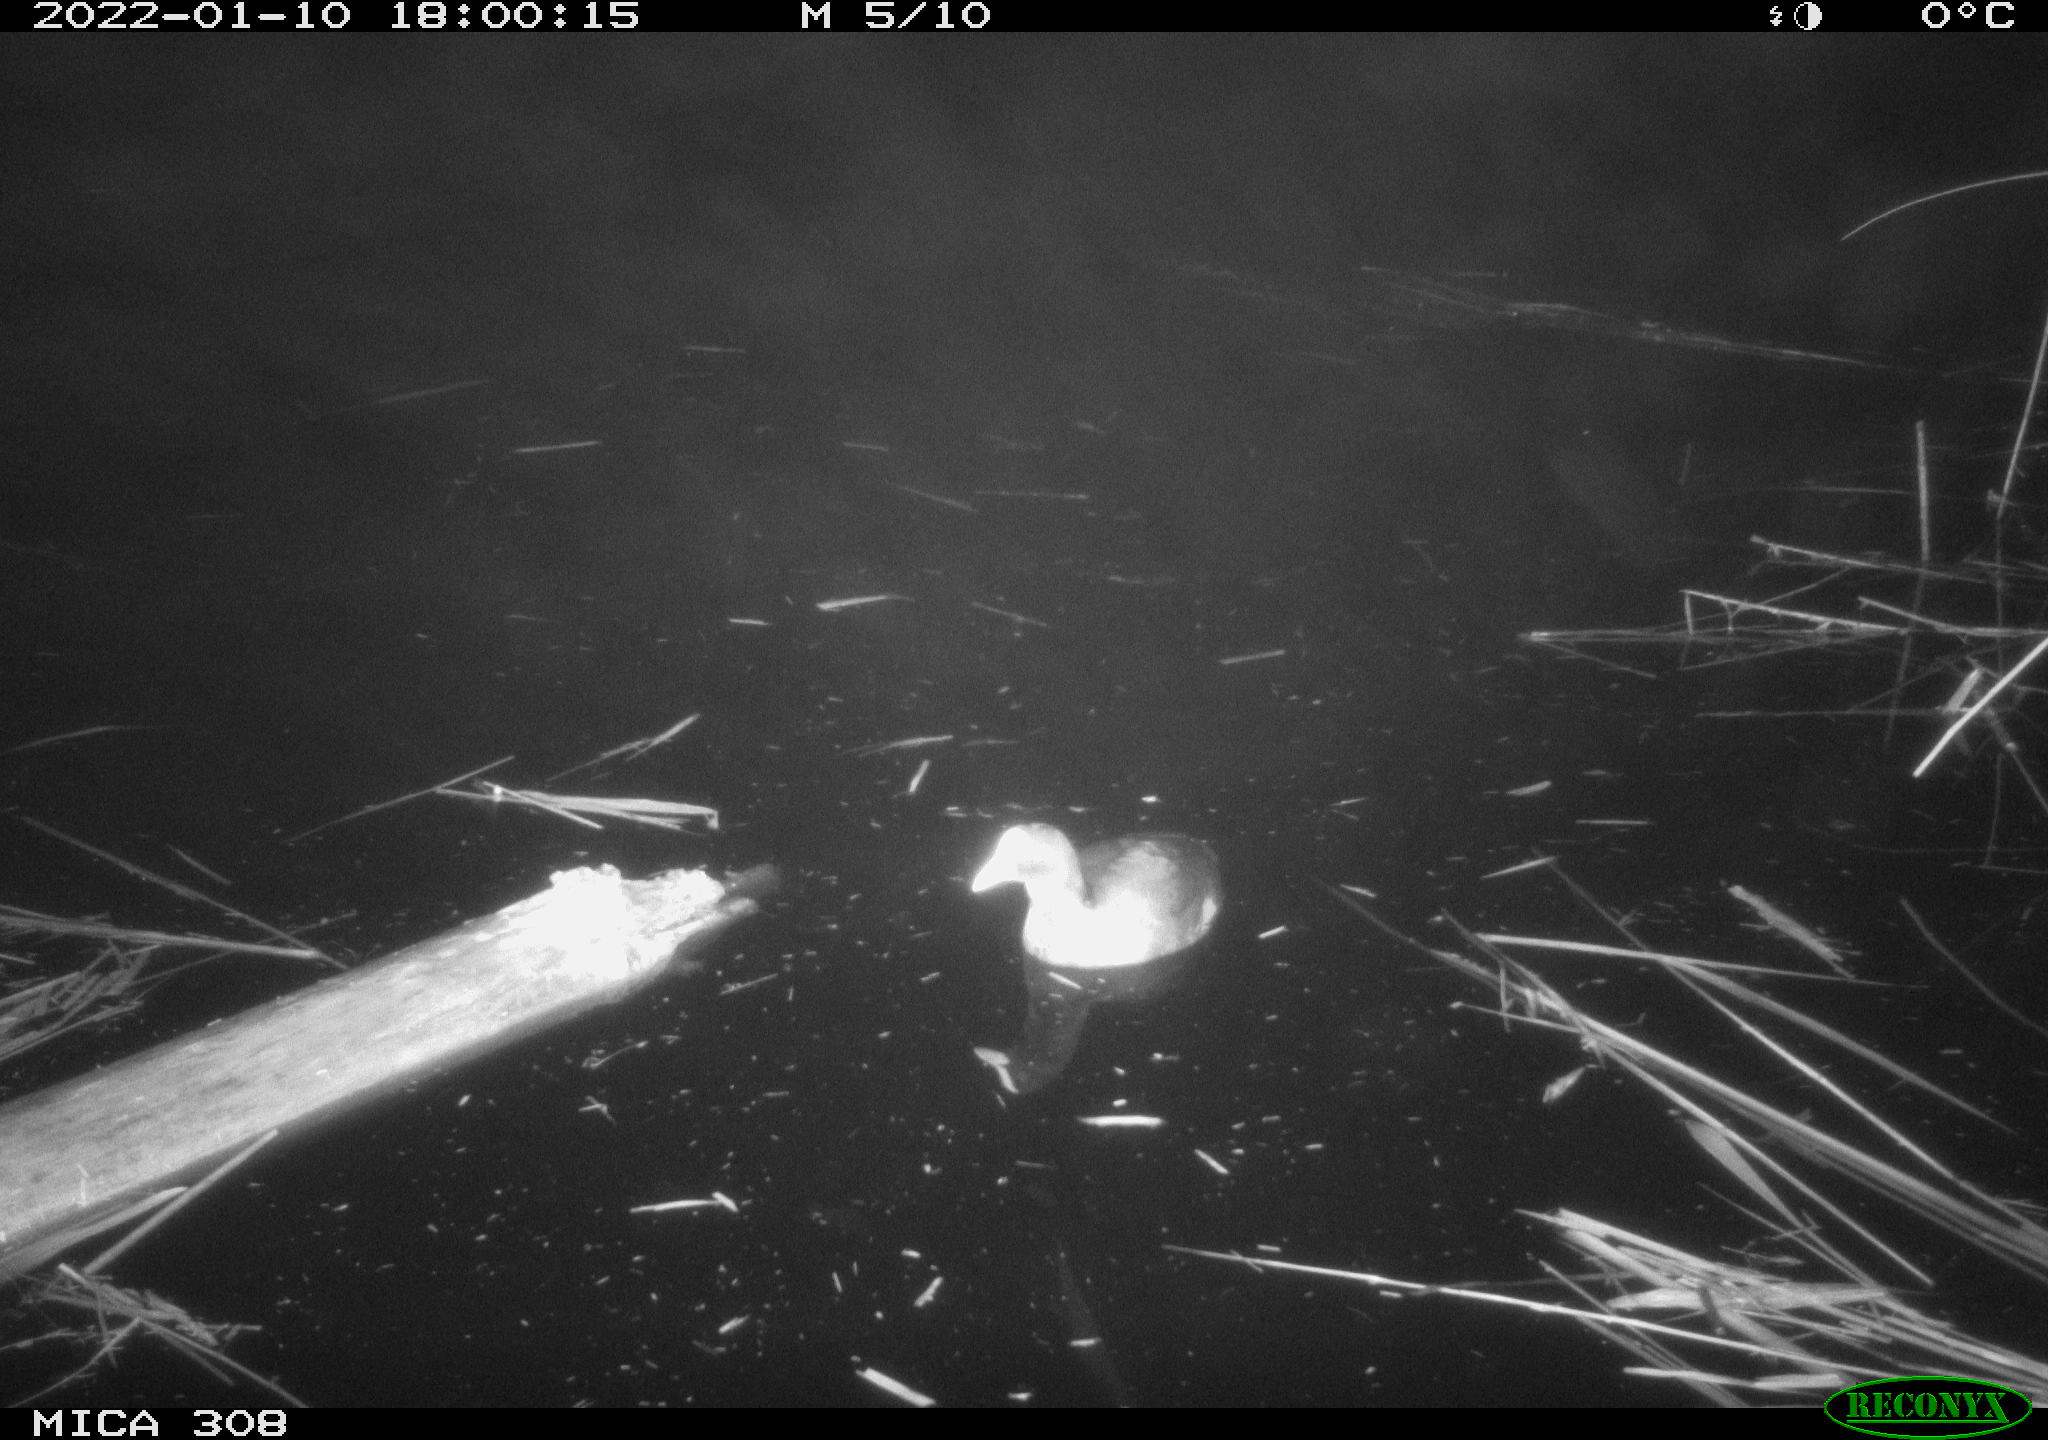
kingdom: Animalia
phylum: Chordata
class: Aves
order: Gruiformes
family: Rallidae
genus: Fulica
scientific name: Fulica atra
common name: Eurasian coot
